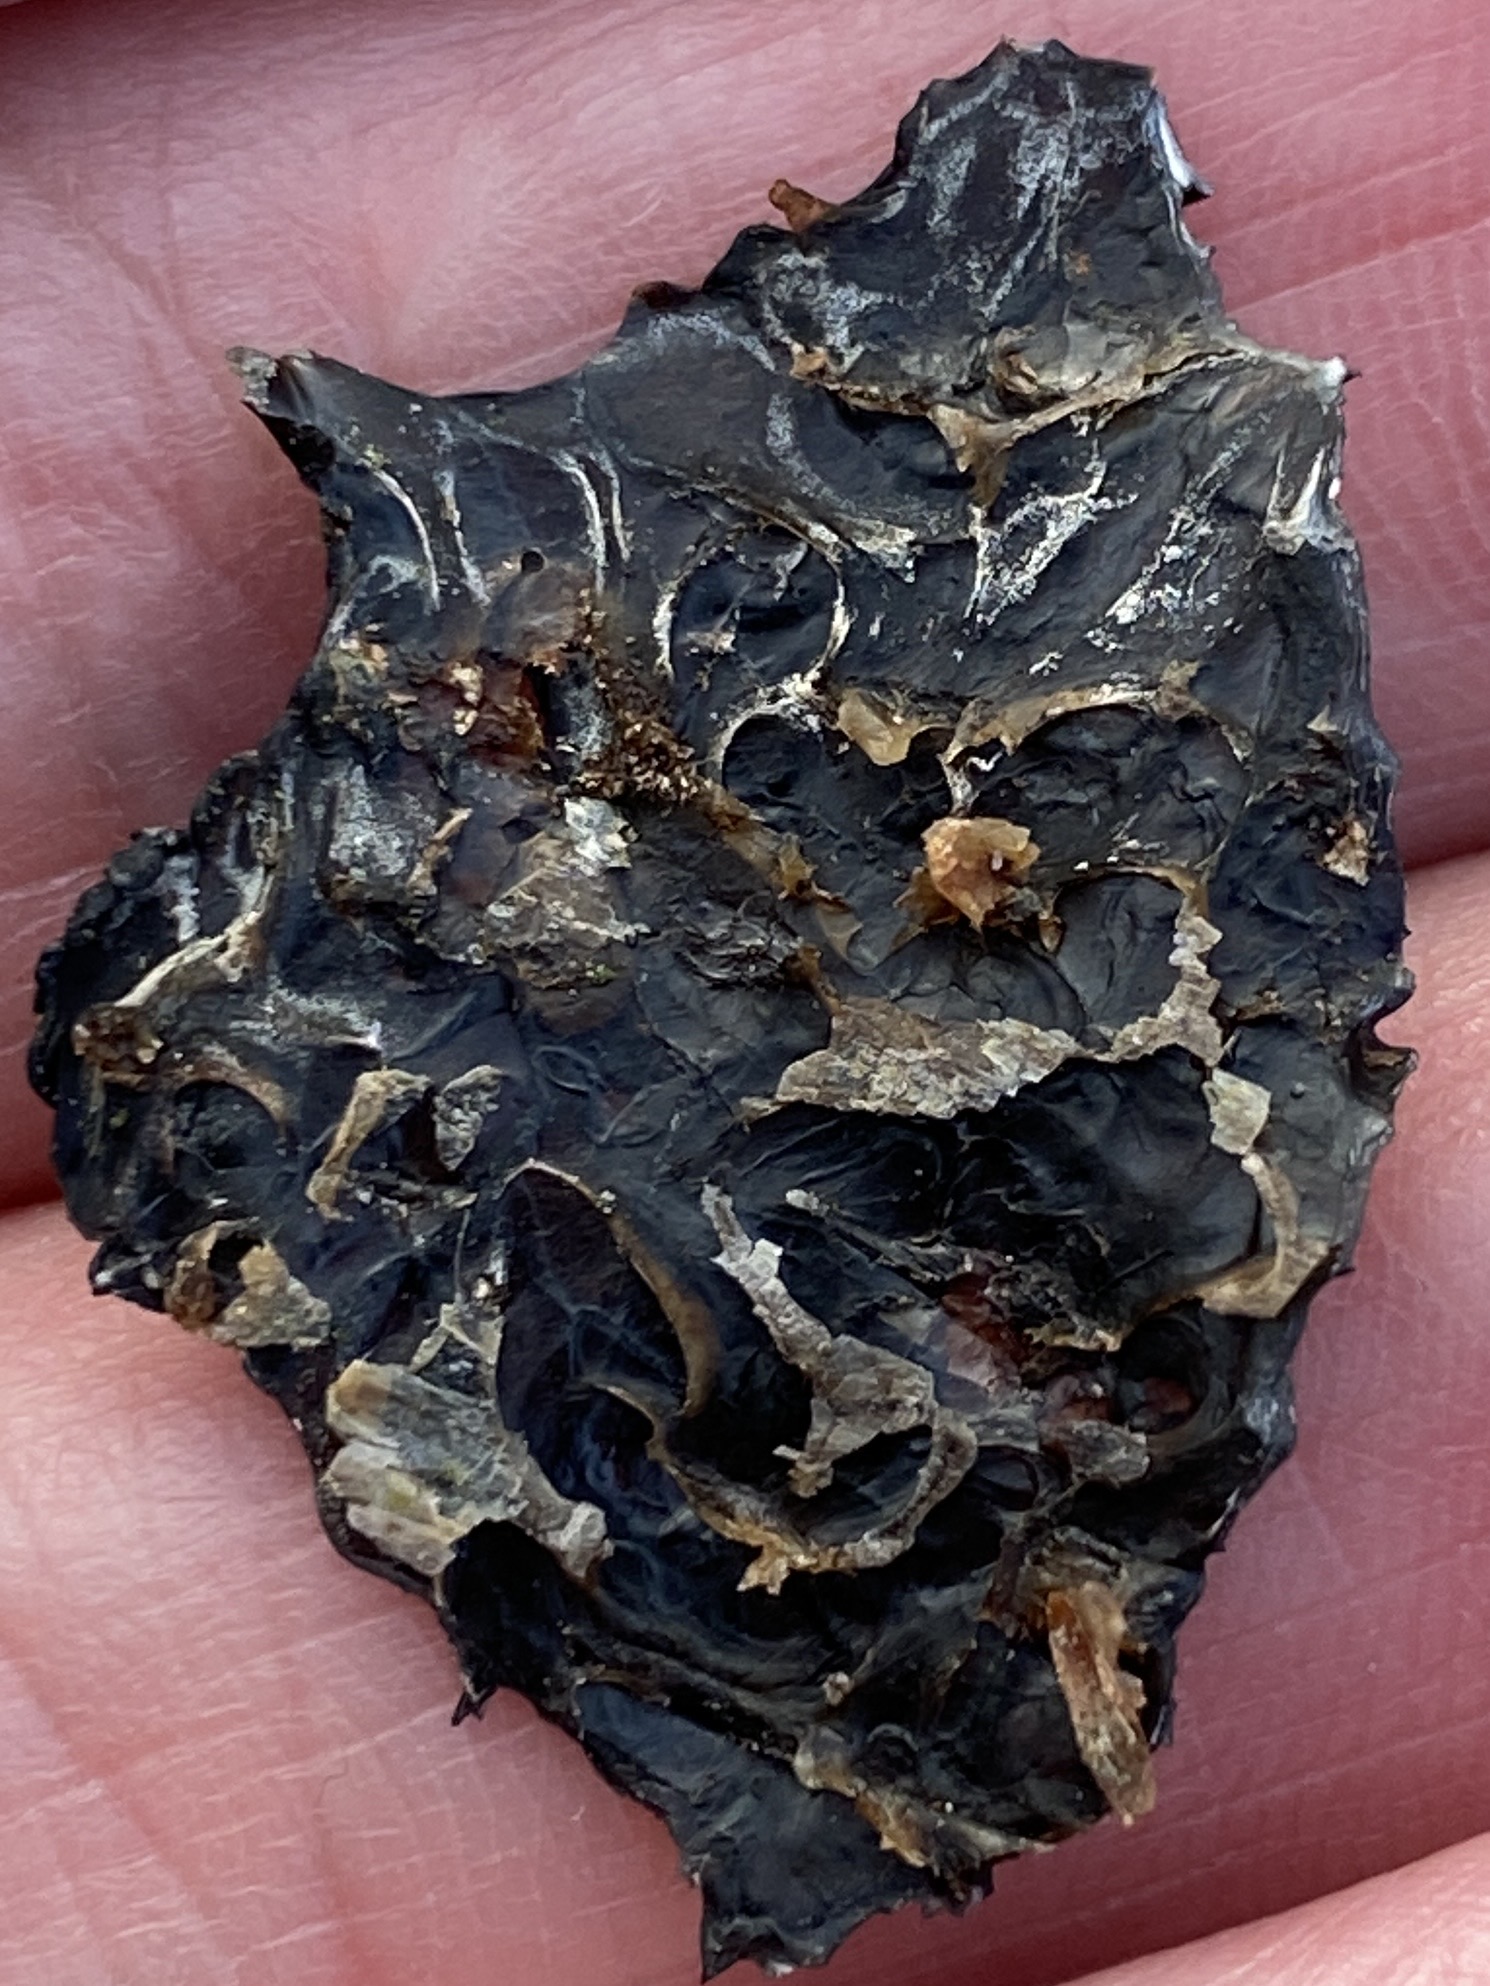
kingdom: Fungi
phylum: Basidiomycota
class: Agaricomycetes
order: Auriculariales
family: Auriculariaceae
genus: Exidia
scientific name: Exidia nigricans
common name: almindelig bævretop
